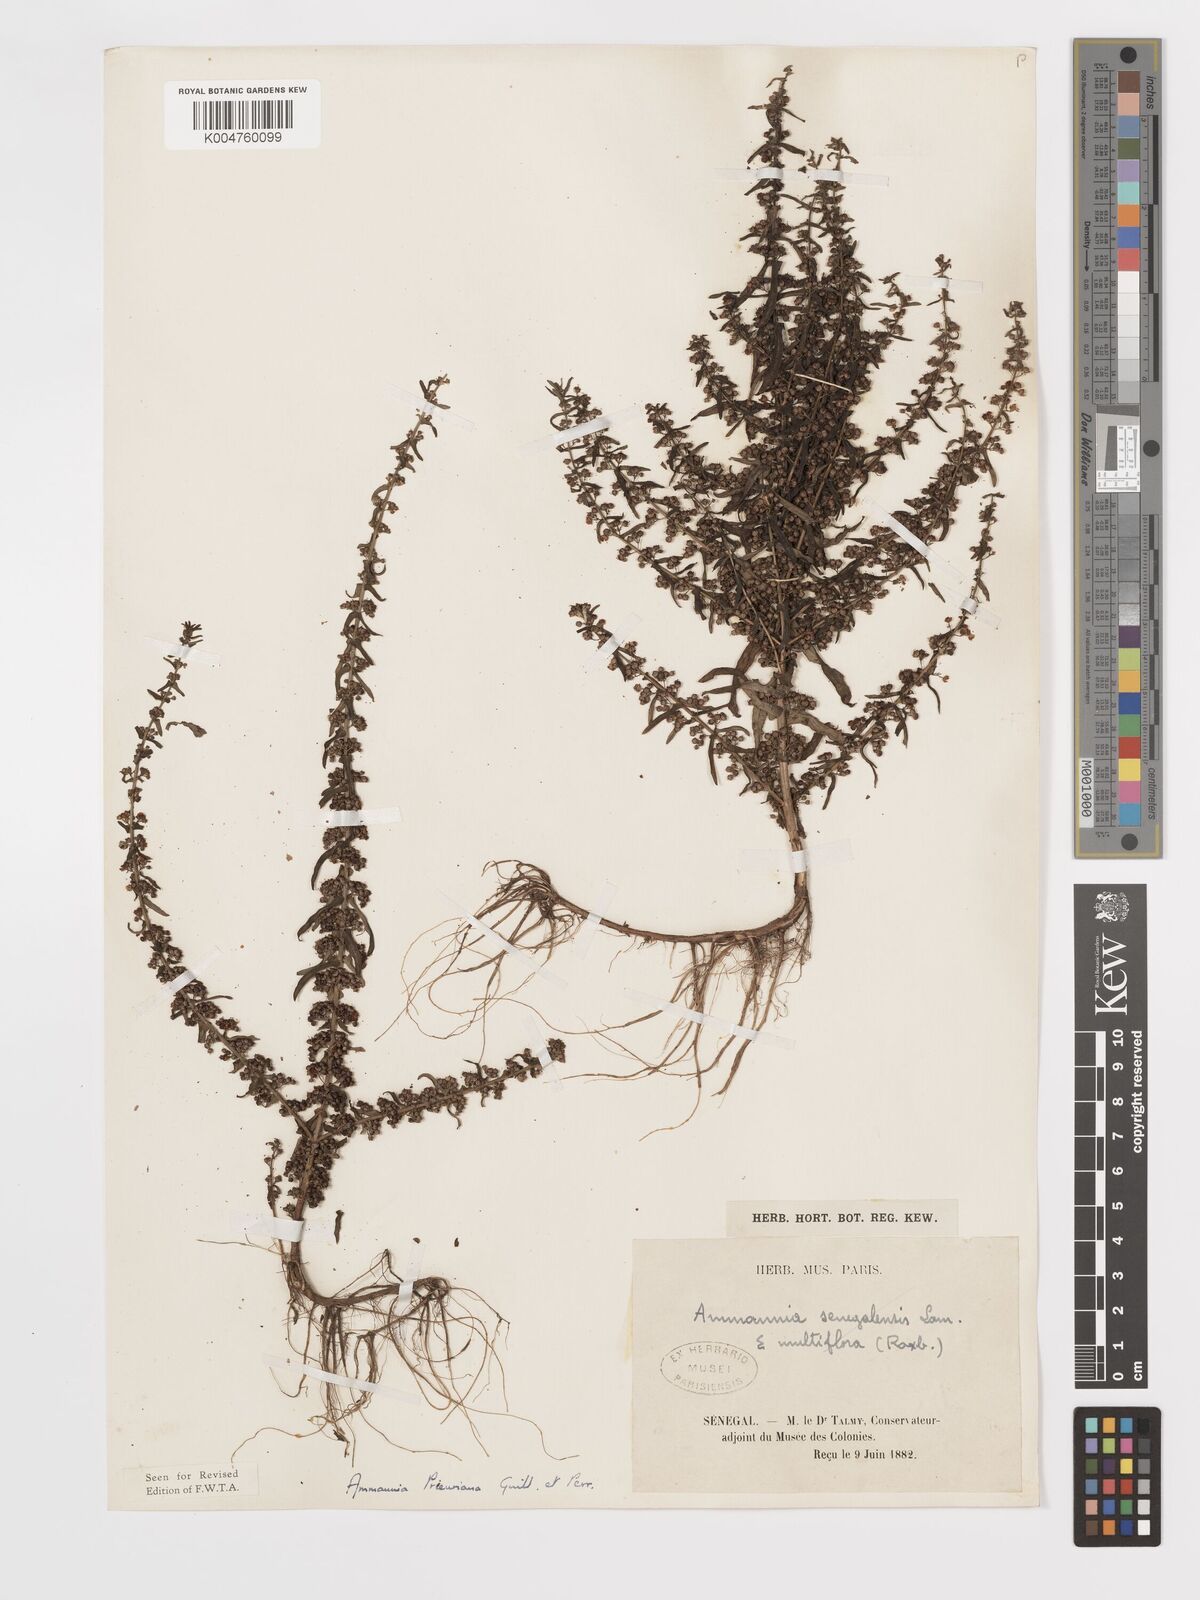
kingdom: Plantae
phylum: Tracheophyta
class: Magnoliopsida
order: Myrtales
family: Lythraceae
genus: Ammannia
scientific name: Ammannia prieuriana
